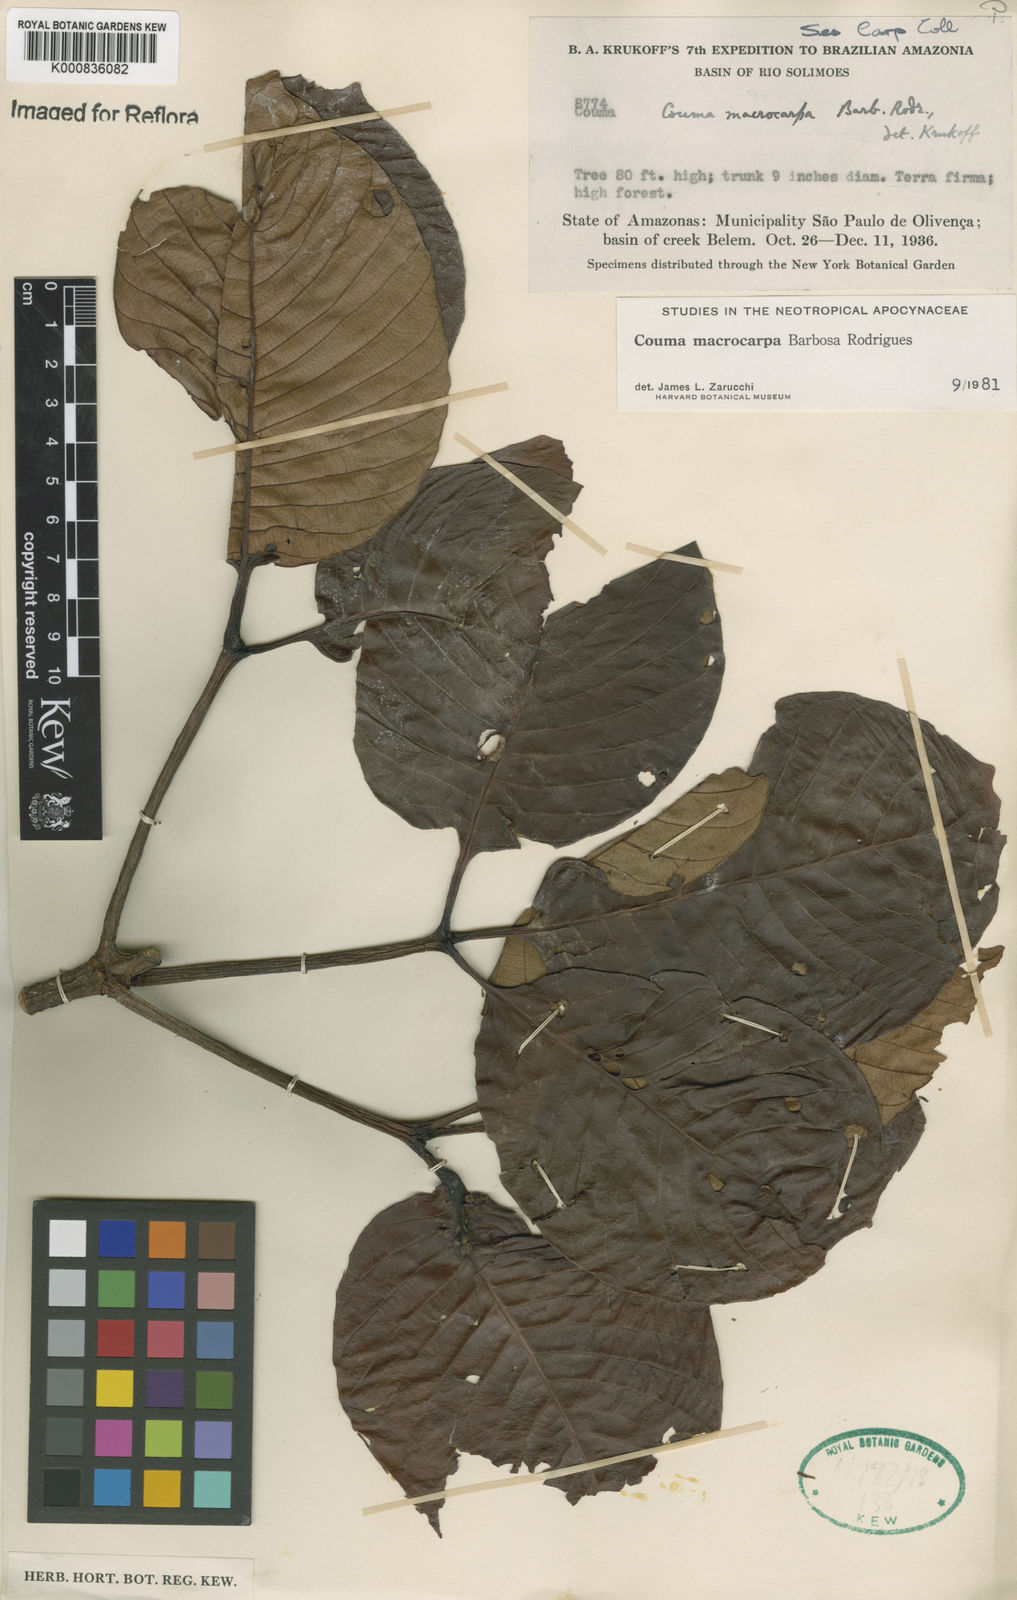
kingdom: Plantae
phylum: Tracheophyta
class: Magnoliopsida
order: Gentianales
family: Apocynaceae
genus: Couma
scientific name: Couma macrocarpa
